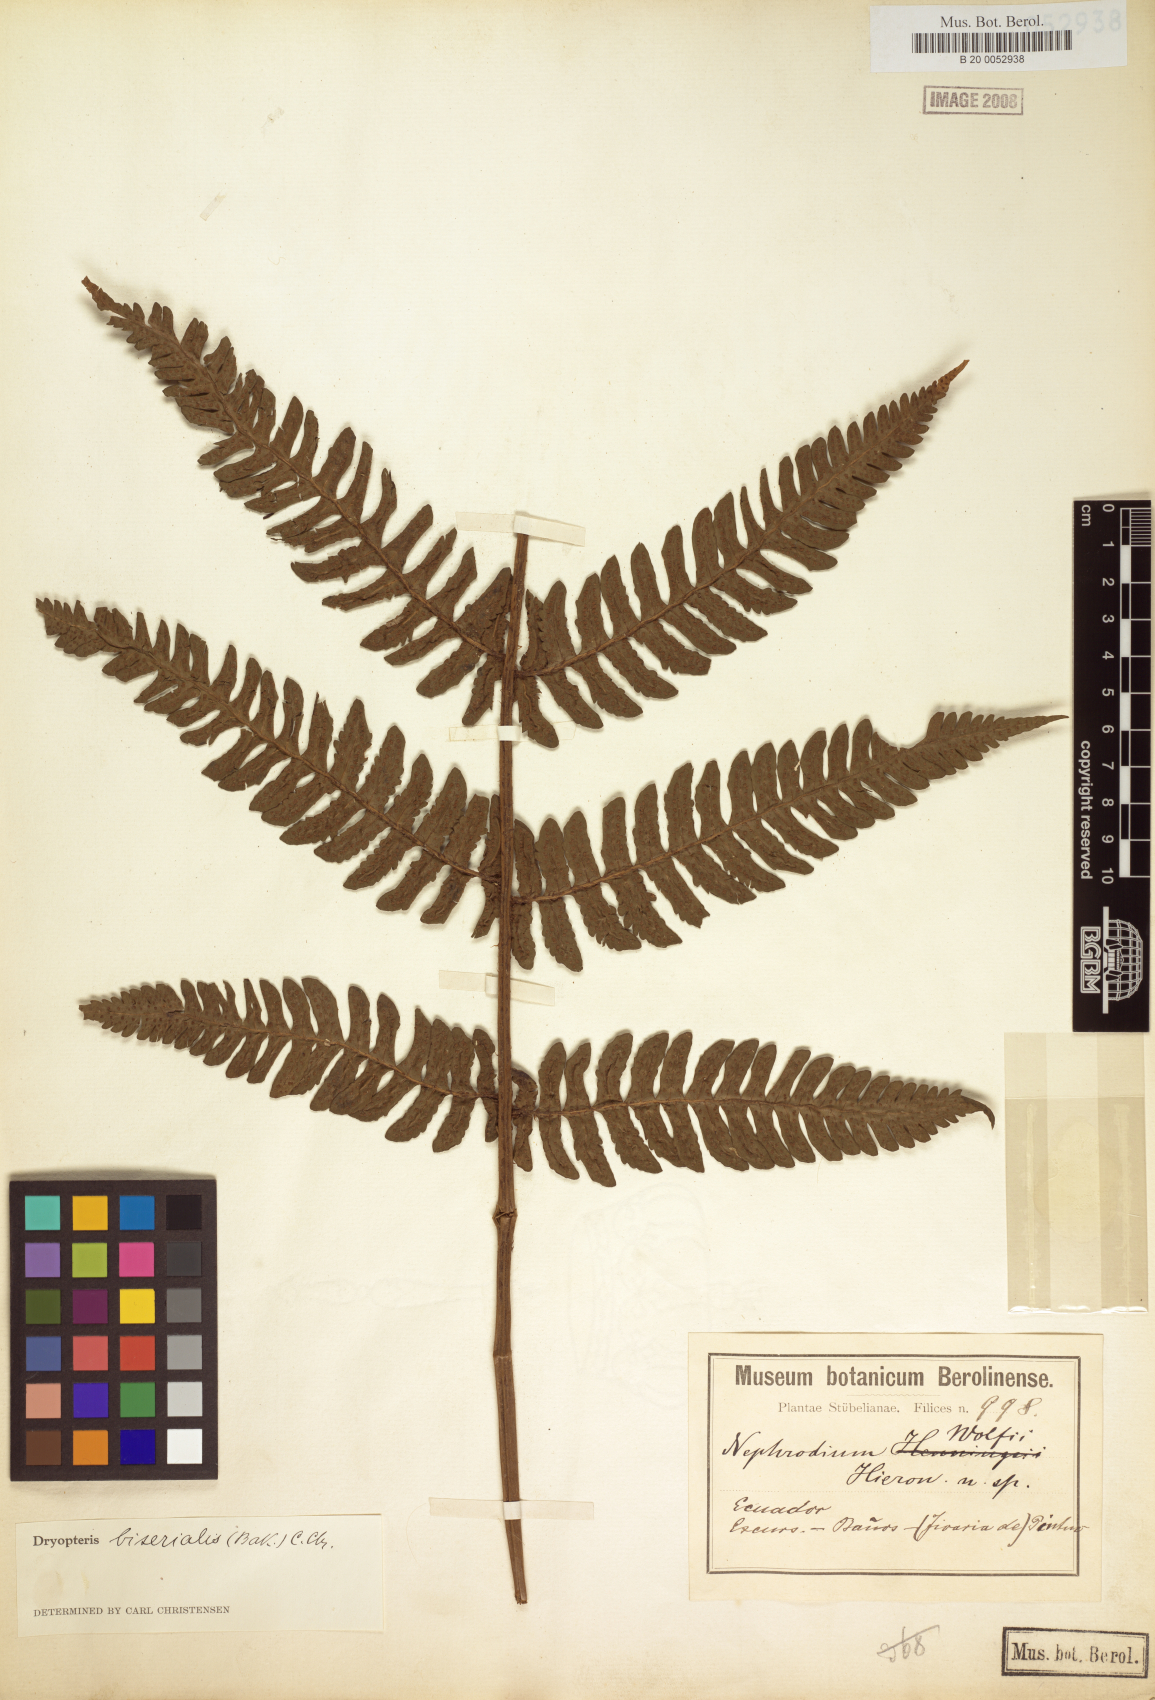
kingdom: Plantae
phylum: Tracheophyta
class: Polypodiopsida
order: Polypodiales
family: Dryopteridaceae
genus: Megalastrum
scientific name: Megalastrum biseriale
